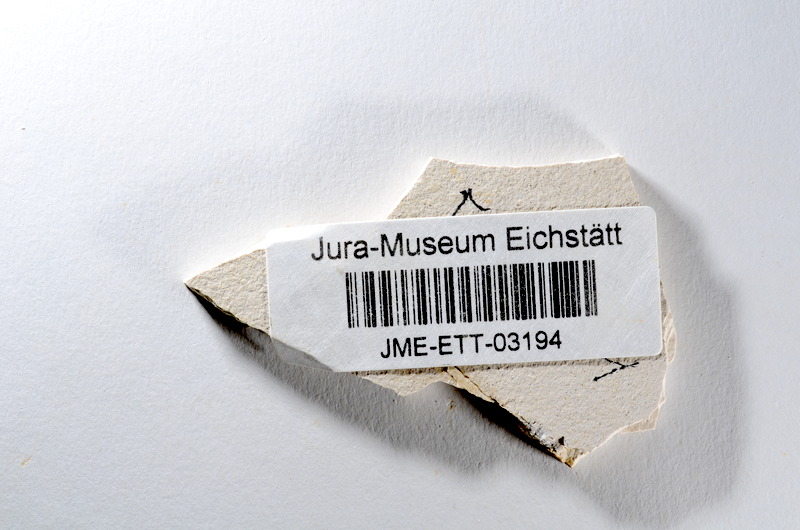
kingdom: Animalia
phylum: Chordata
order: Salmoniformes
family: Orthogonikleithridae
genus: Orthogonikleithrus
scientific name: Orthogonikleithrus hoelli
